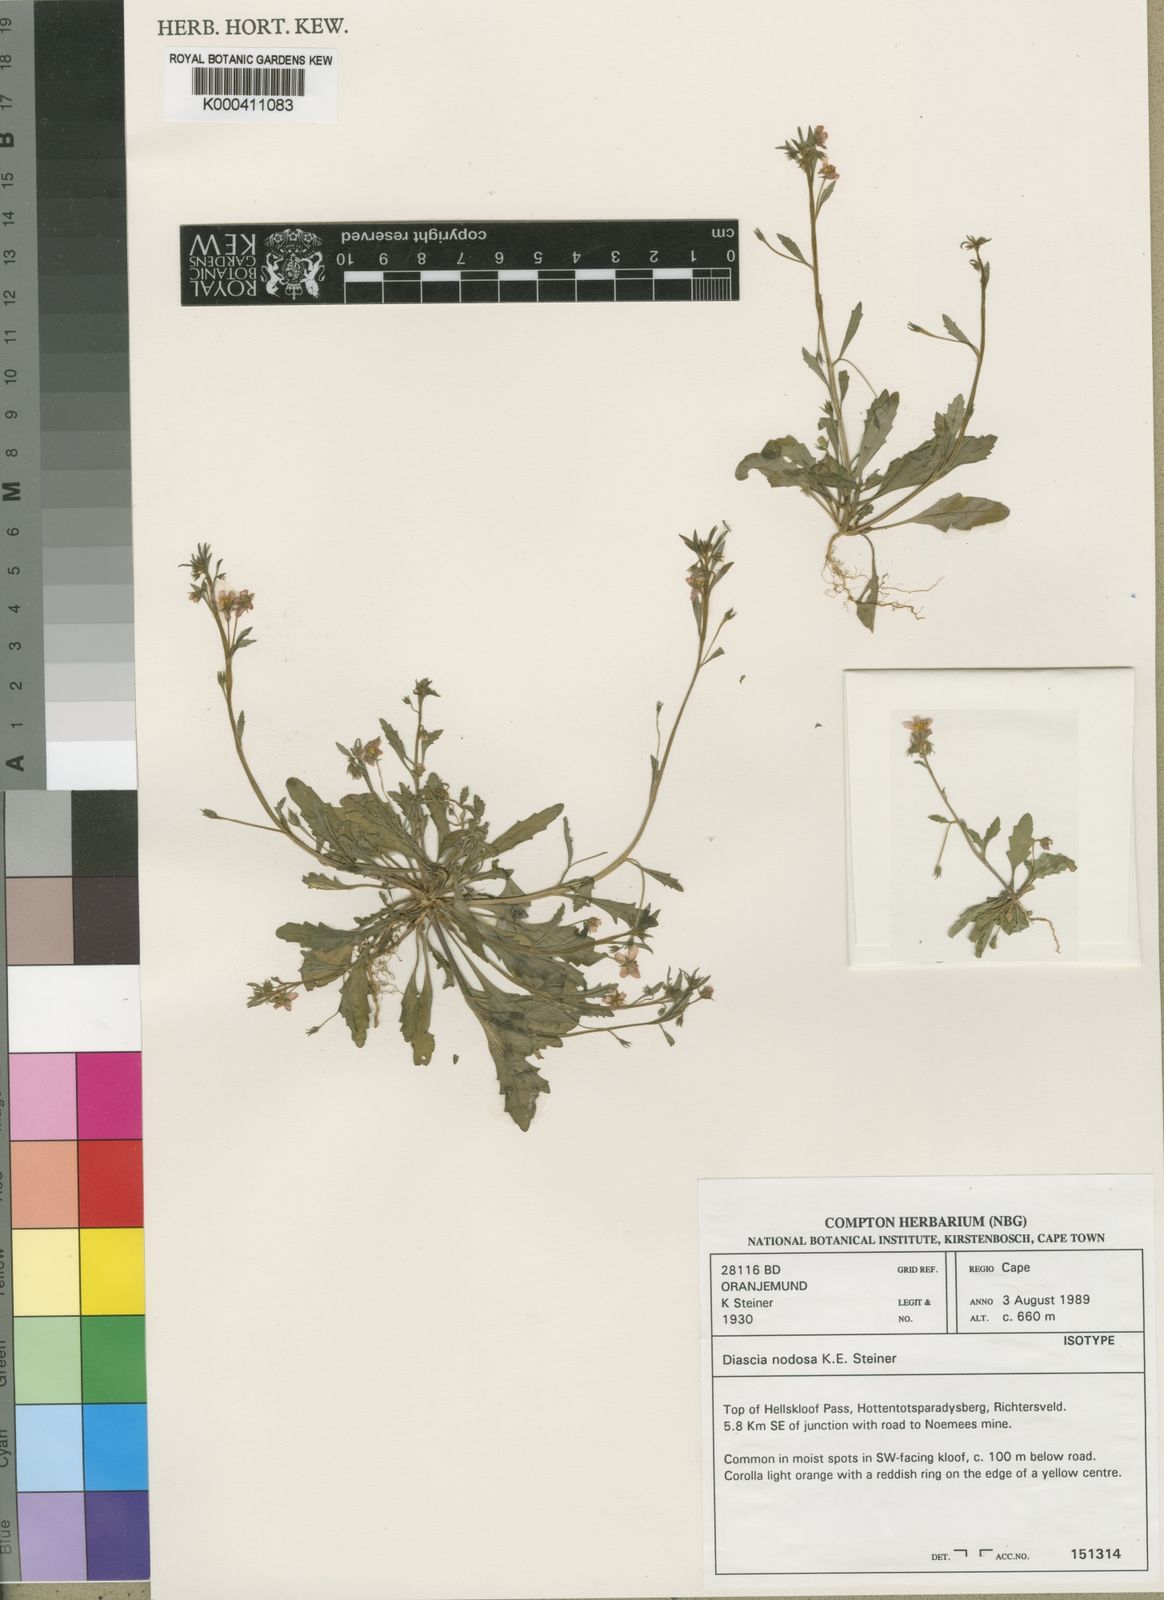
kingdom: Plantae
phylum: Tracheophyta
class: Magnoliopsida
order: Lamiales
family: Scrophulariaceae
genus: Diascia
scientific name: Diascia nodosa
